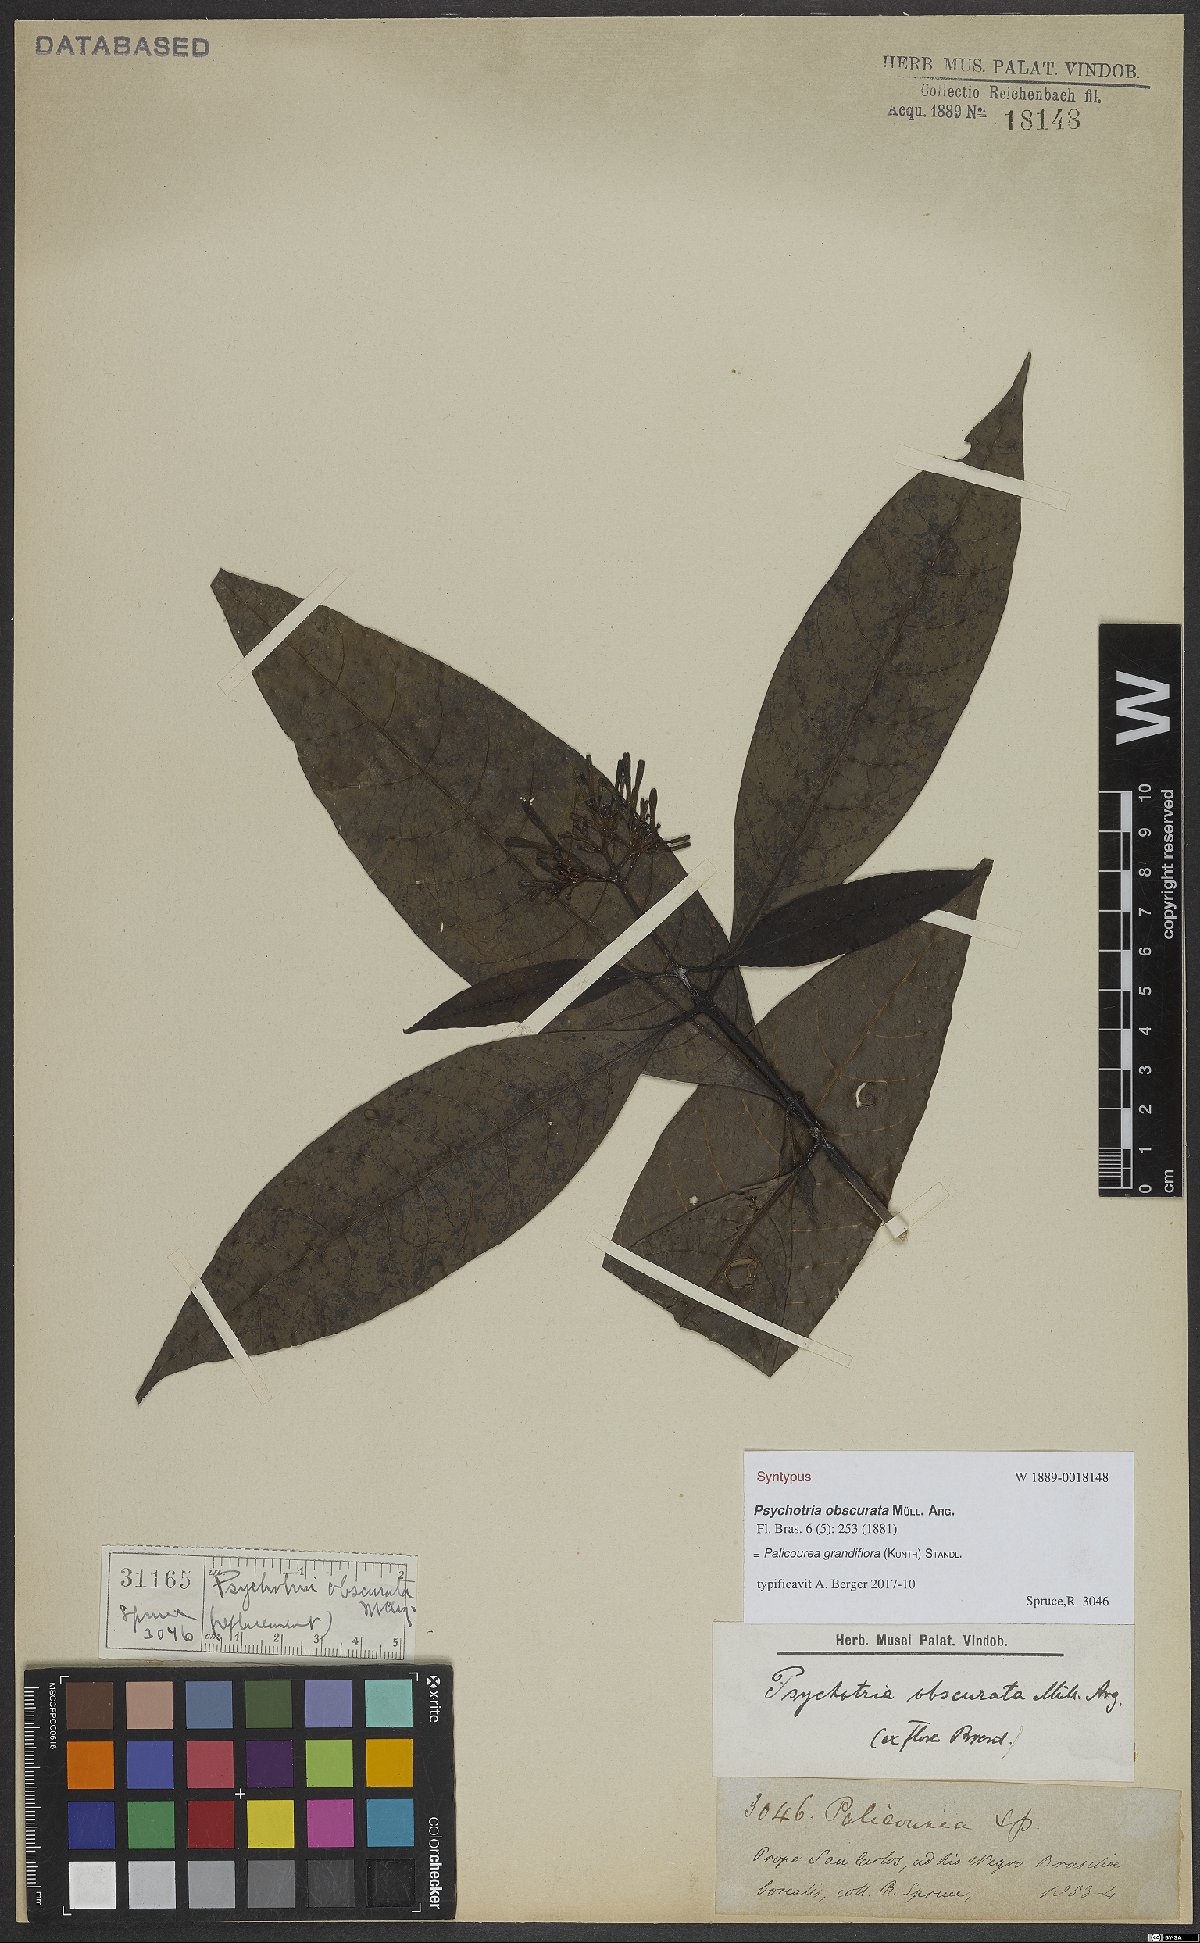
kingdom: Plantae
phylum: Tracheophyta
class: Magnoliopsida
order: Gentianales
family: Rubiaceae
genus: Palicourea
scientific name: Palicourea grandiflora
